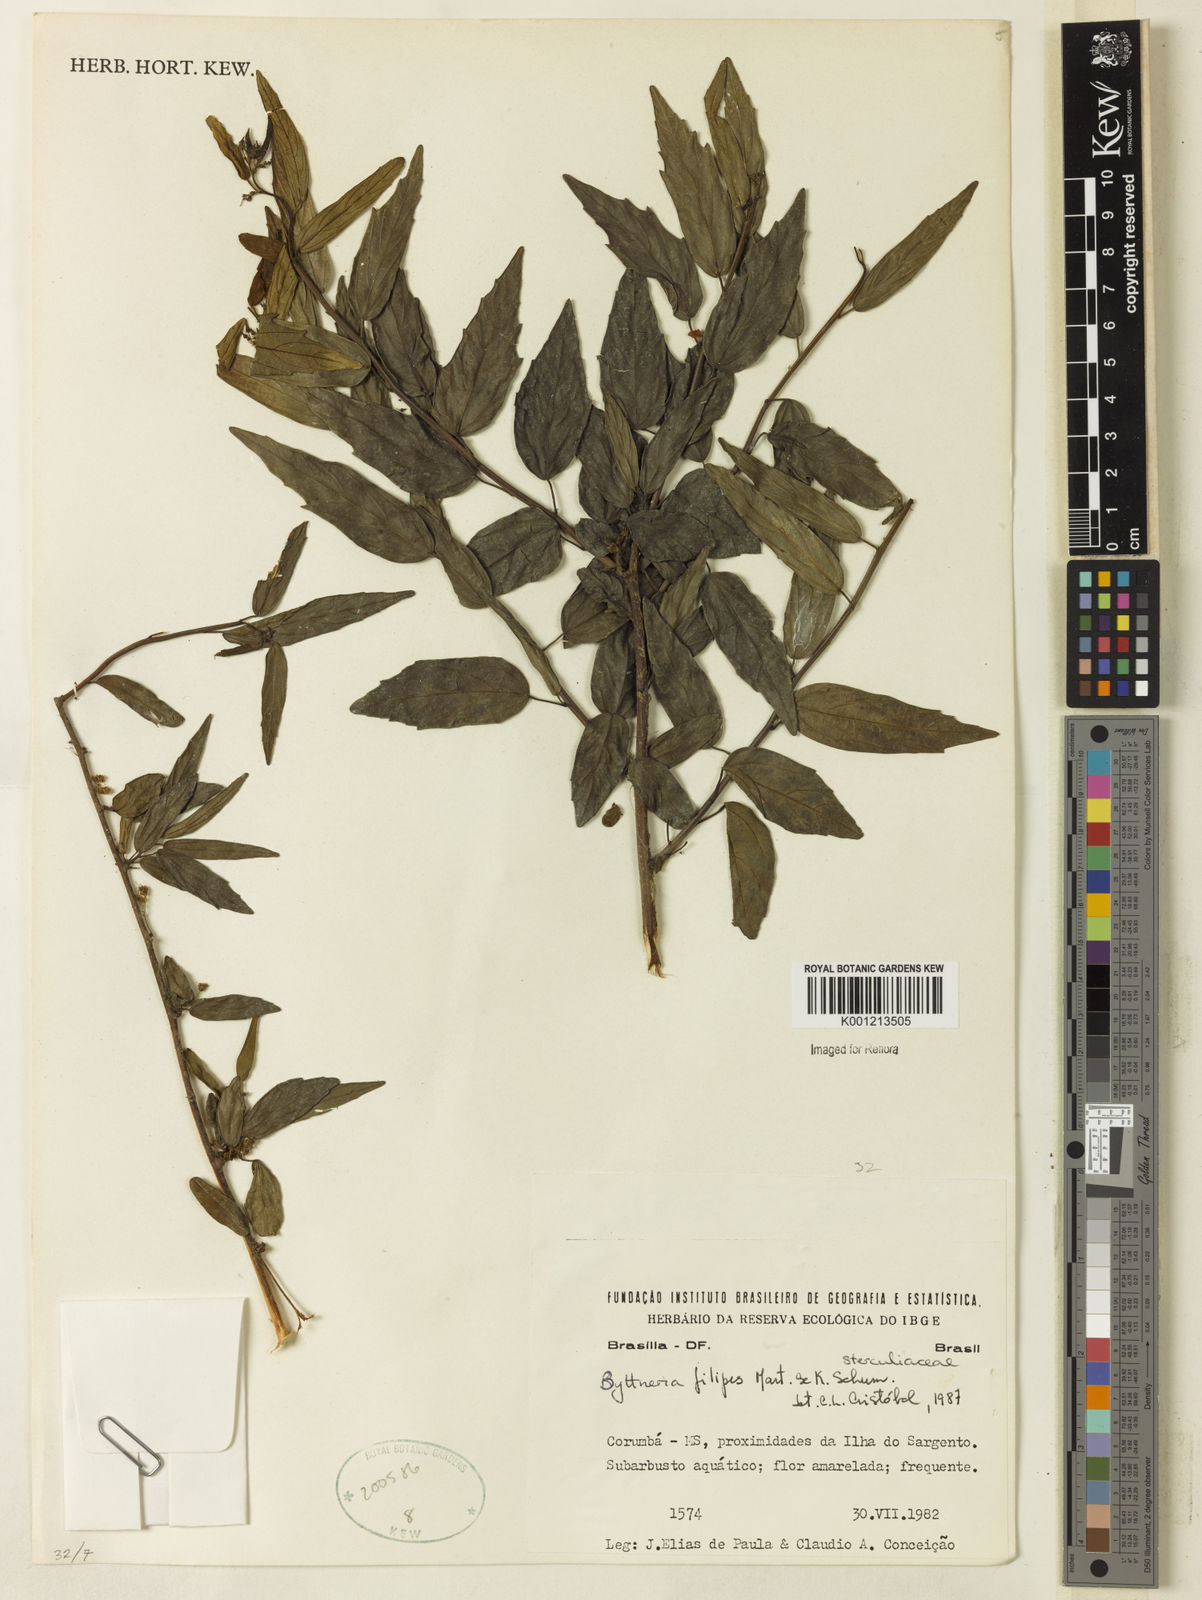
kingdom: Plantae
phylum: Tracheophyta
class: Magnoliopsida
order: Malvales
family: Malvaceae
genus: Byttneria
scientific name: Byttneria filipes
